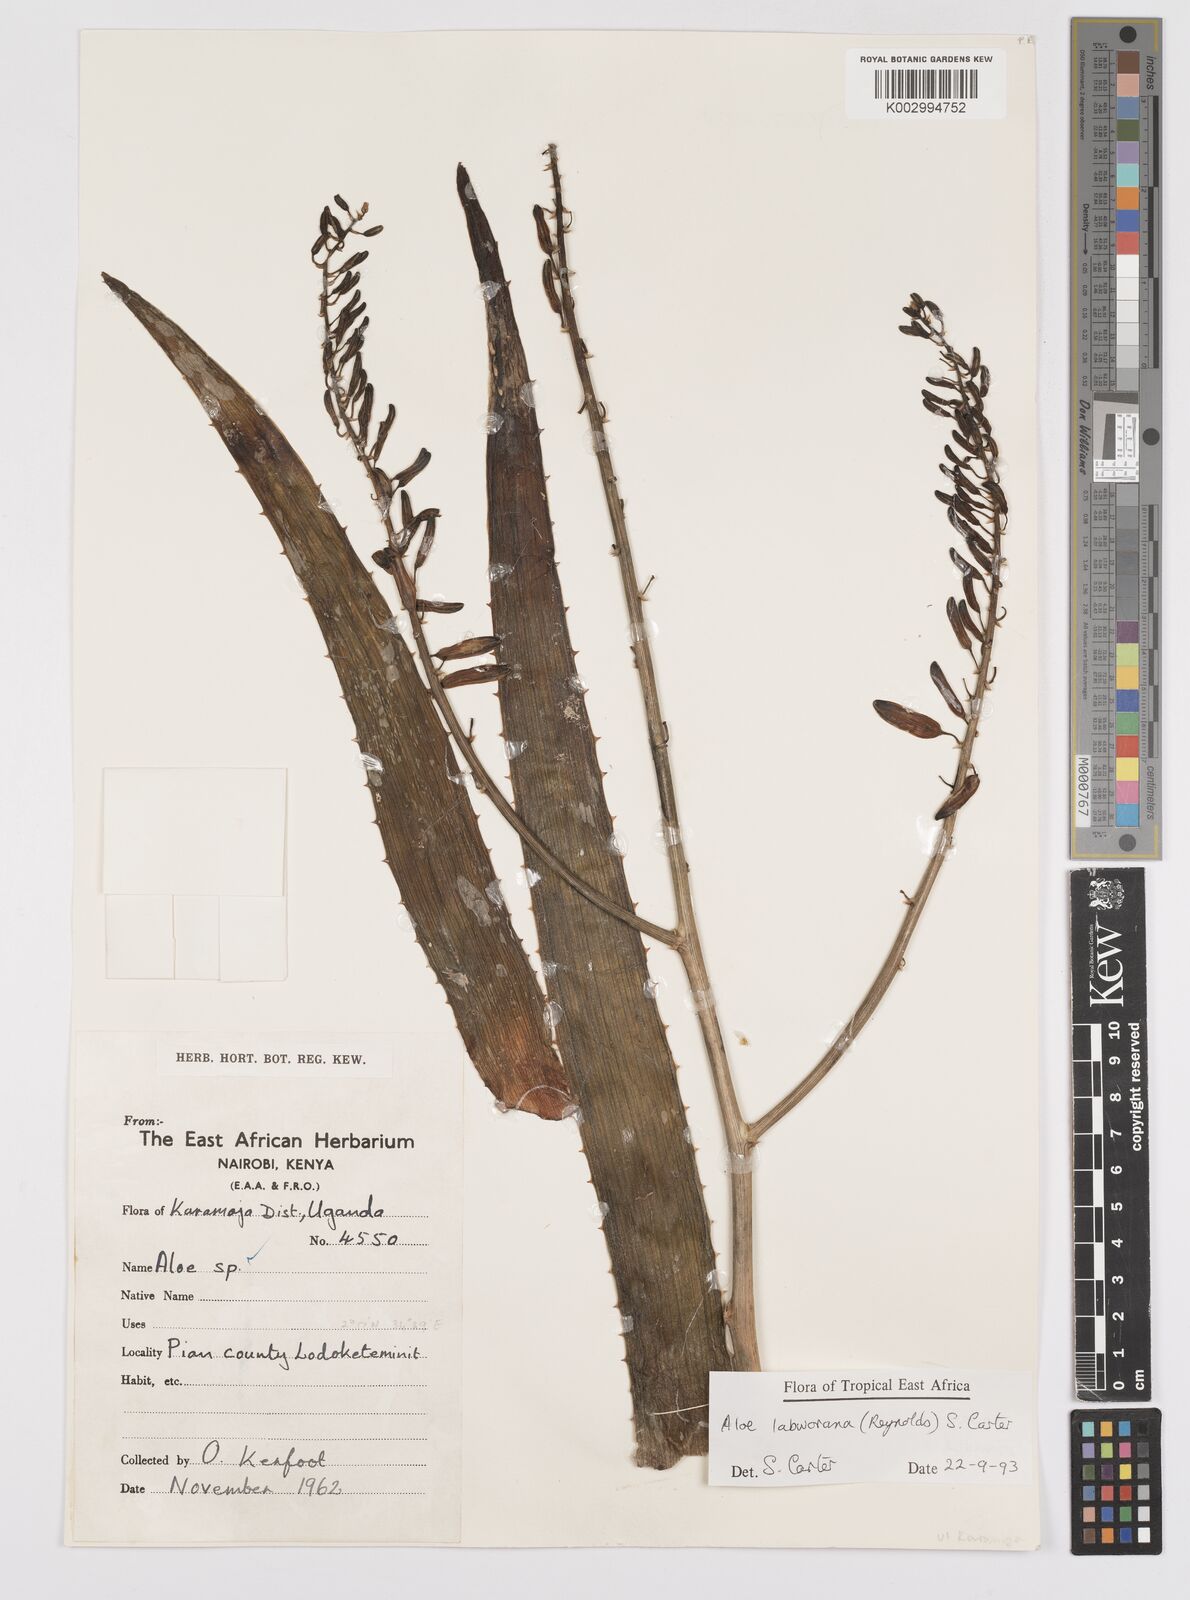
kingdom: Plantae
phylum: Tracheophyta
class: Liliopsida
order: Asparagales
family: Asphodelaceae
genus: Aloe
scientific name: Aloe labworana
